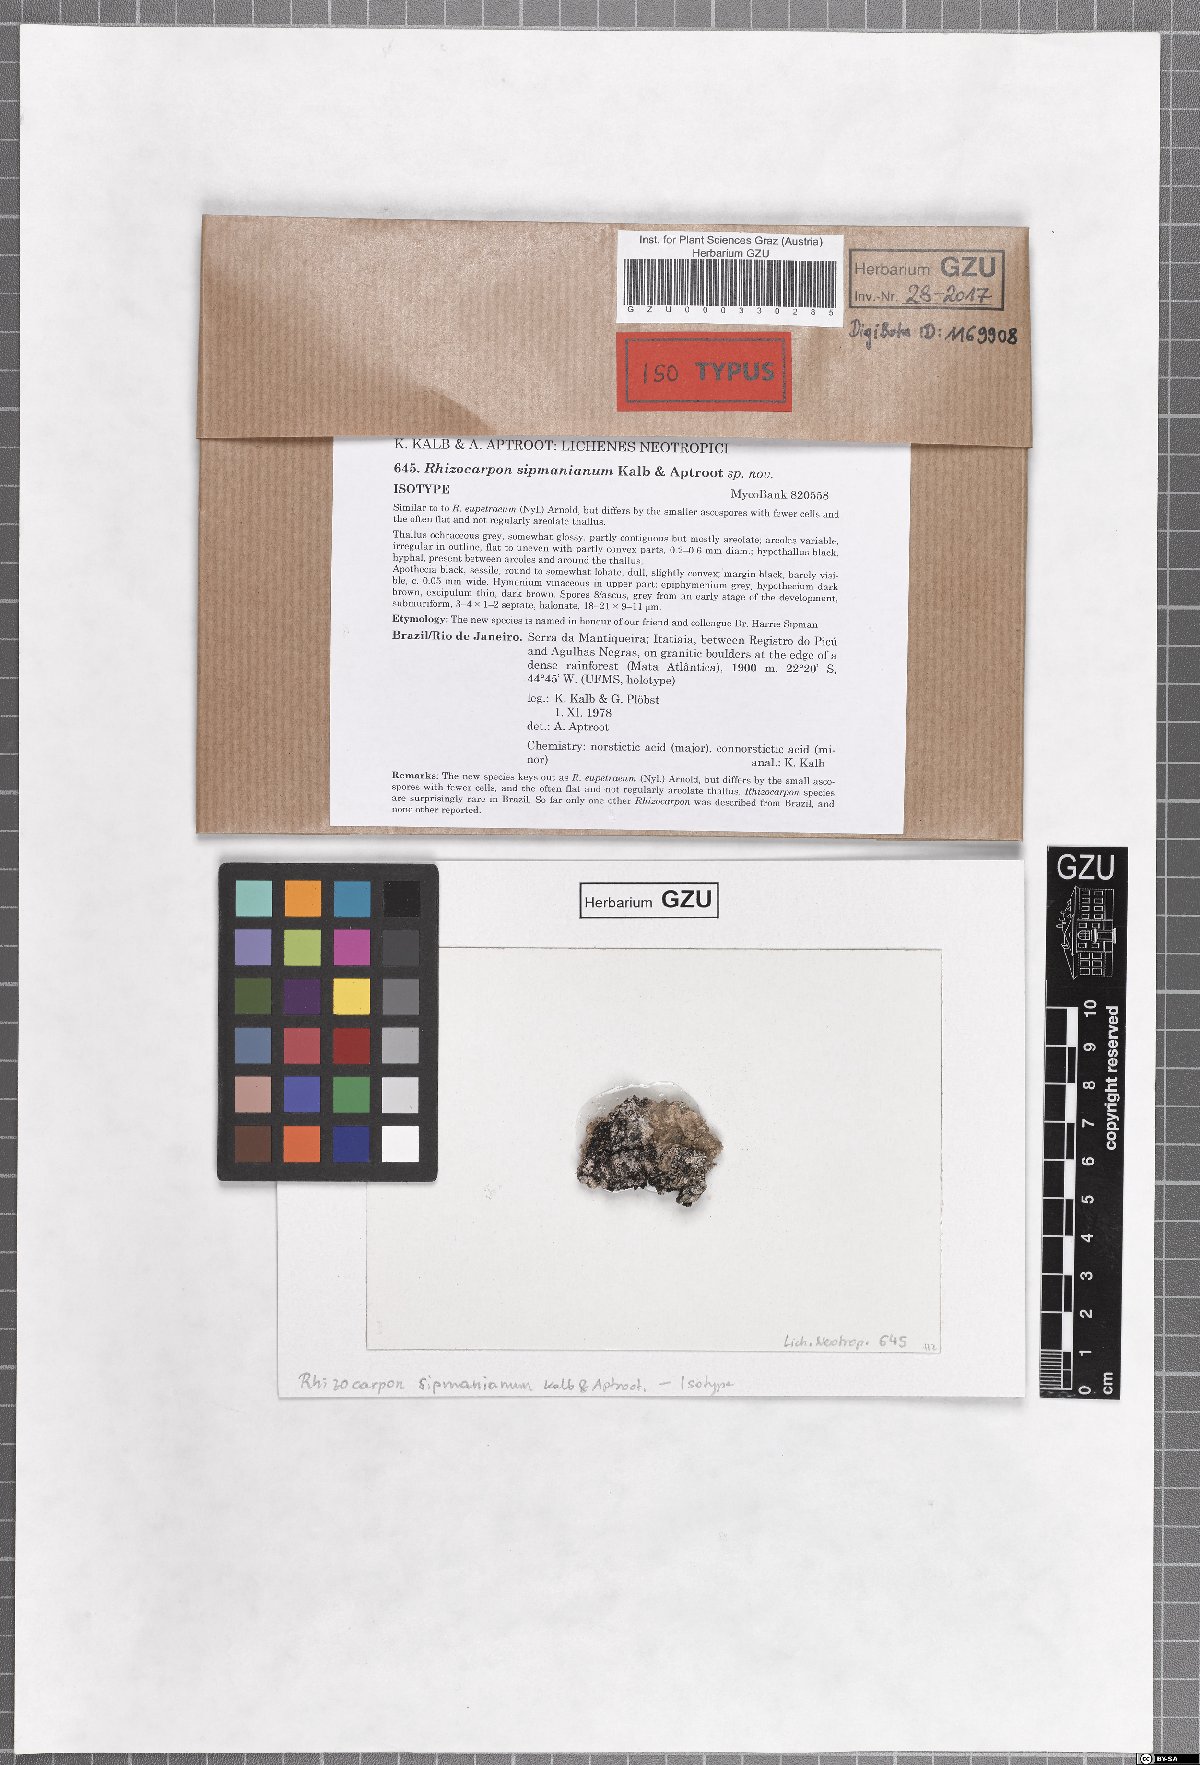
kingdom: Fungi
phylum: Ascomycota
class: Lecanoromycetes
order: Rhizocarpales
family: Rhizocarpaceae
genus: Rhizocarpon
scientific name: Rhizocarpon sipmanianum
